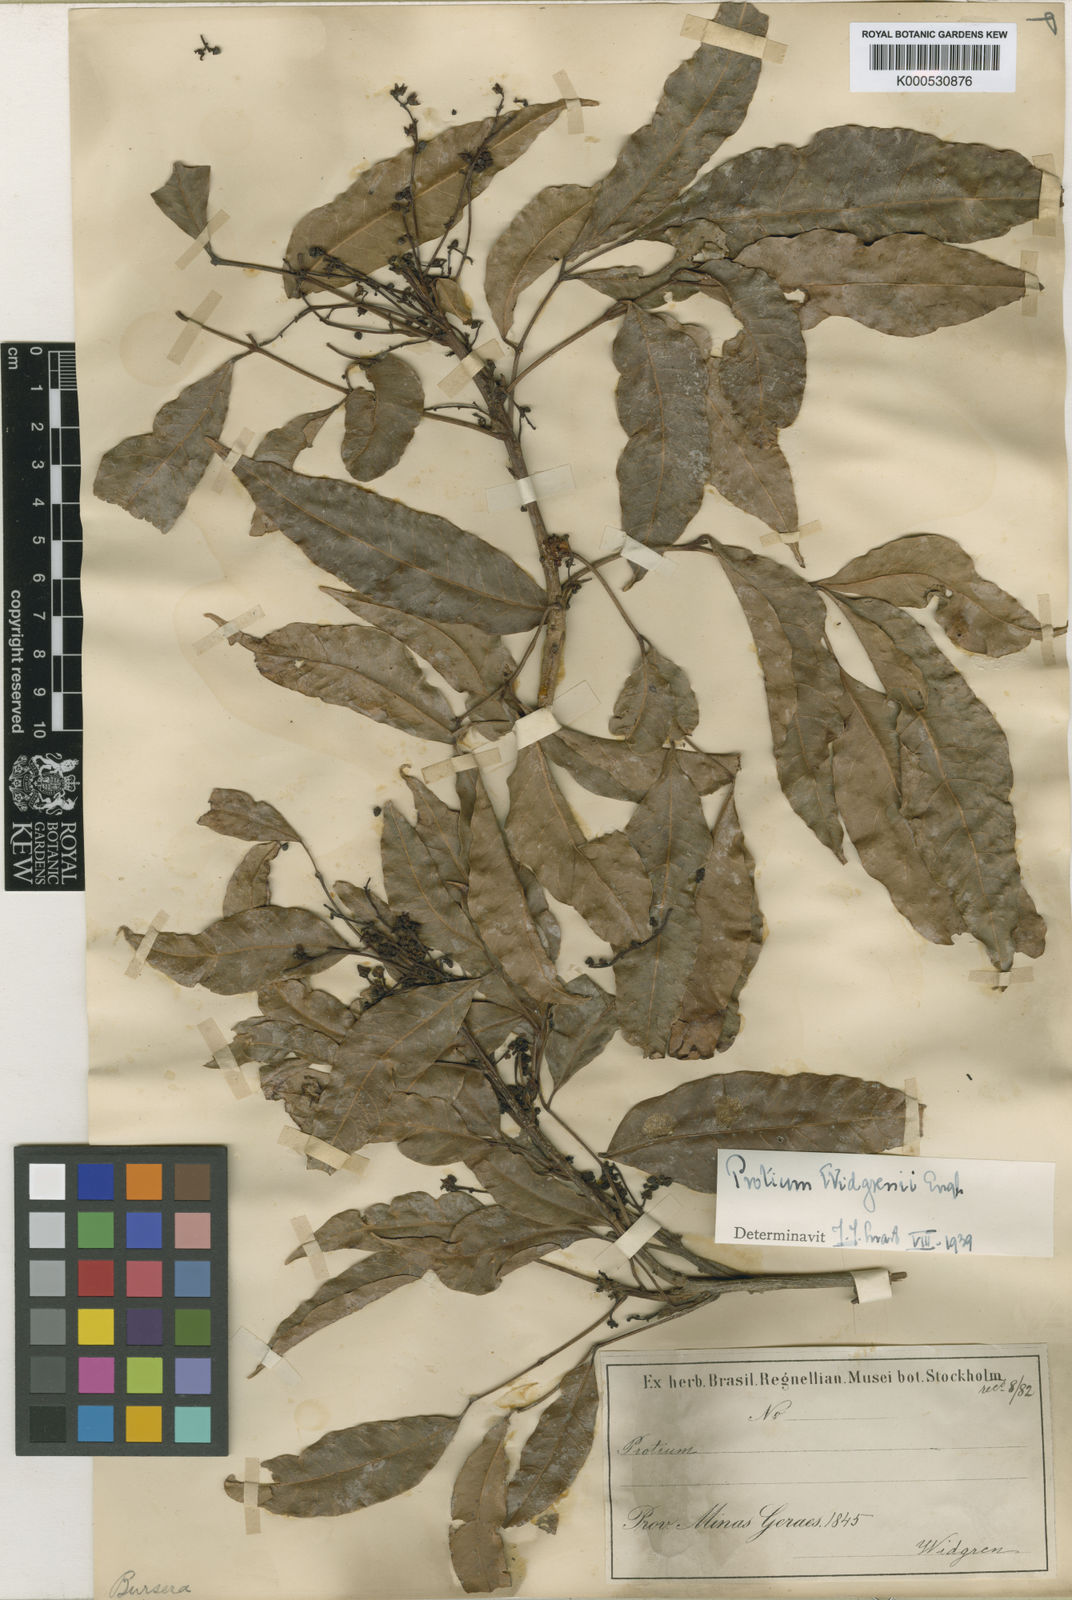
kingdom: Plantae
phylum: Tracheophyta
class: Magnoliopsida
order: Sapindales
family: Burseraceae
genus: Protium
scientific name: Protium widgrenii
